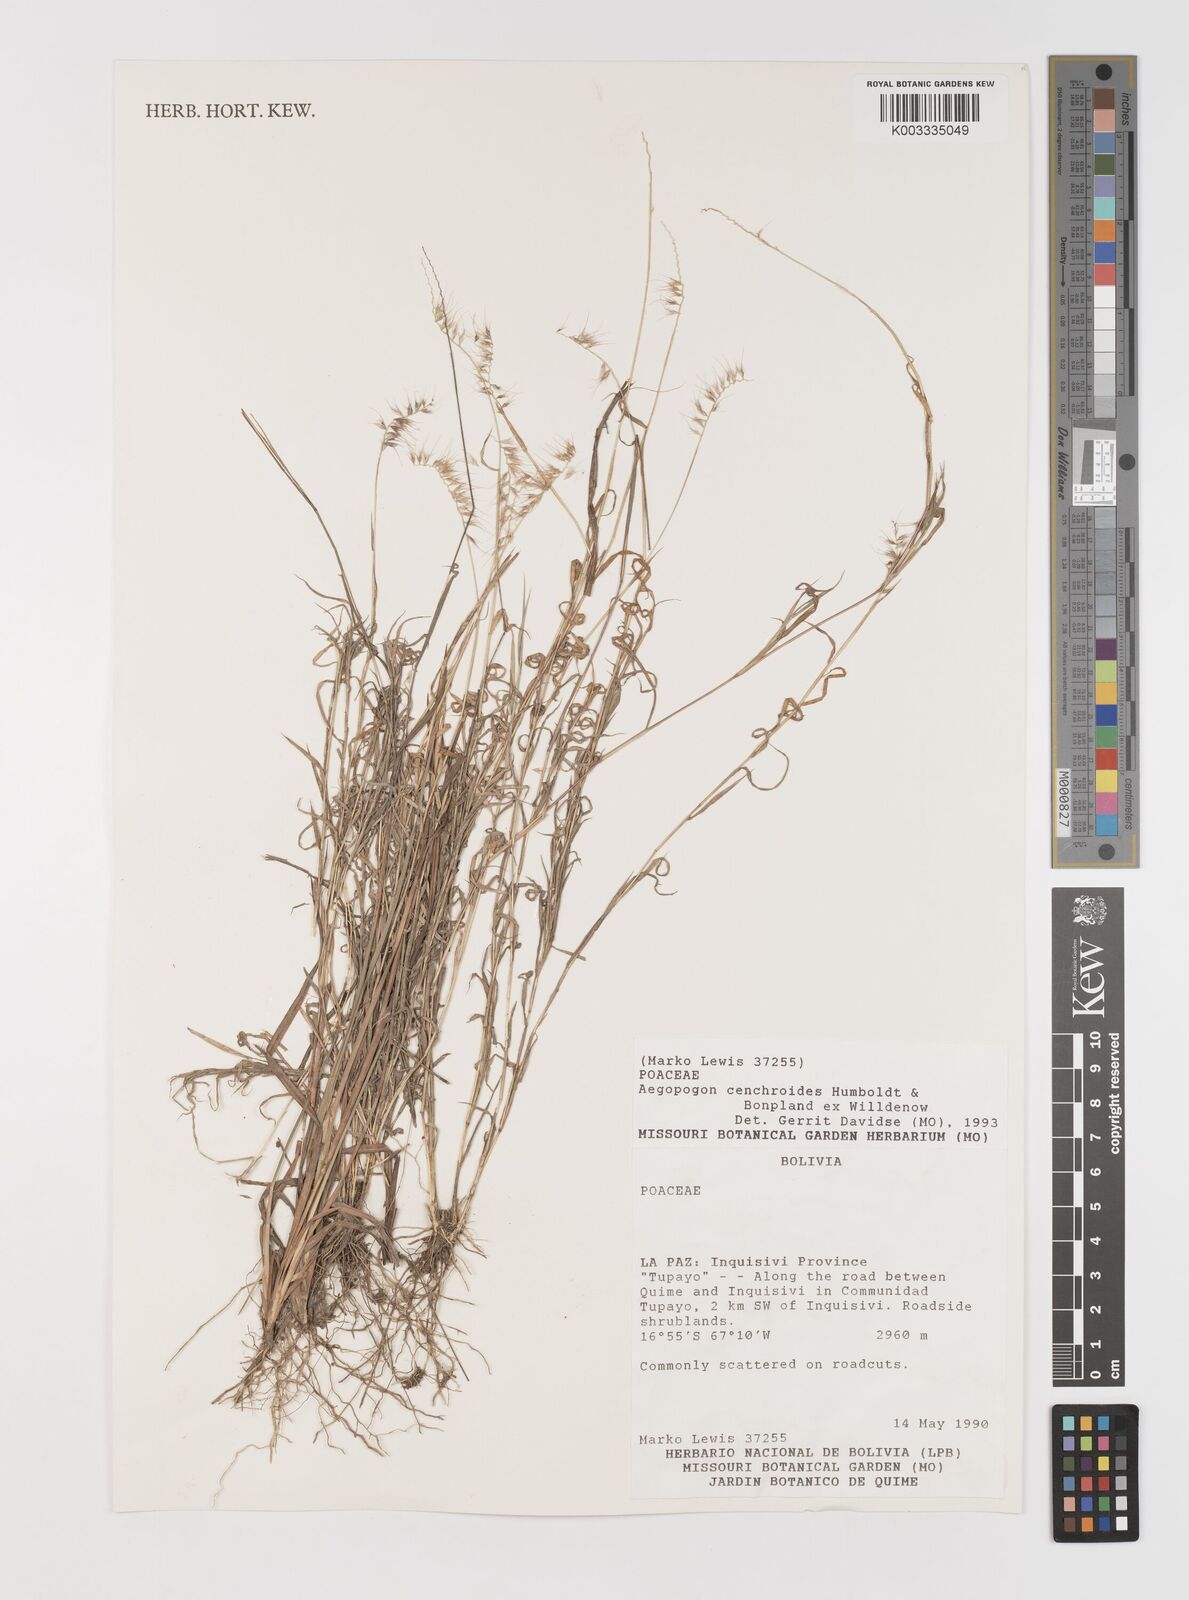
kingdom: Plantae
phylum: Tracheophyta
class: Liliopsida
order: Poales
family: Poaceae
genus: Muhlenbergia
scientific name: Muhlenbergia cenchroides
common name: Relaxgrass
